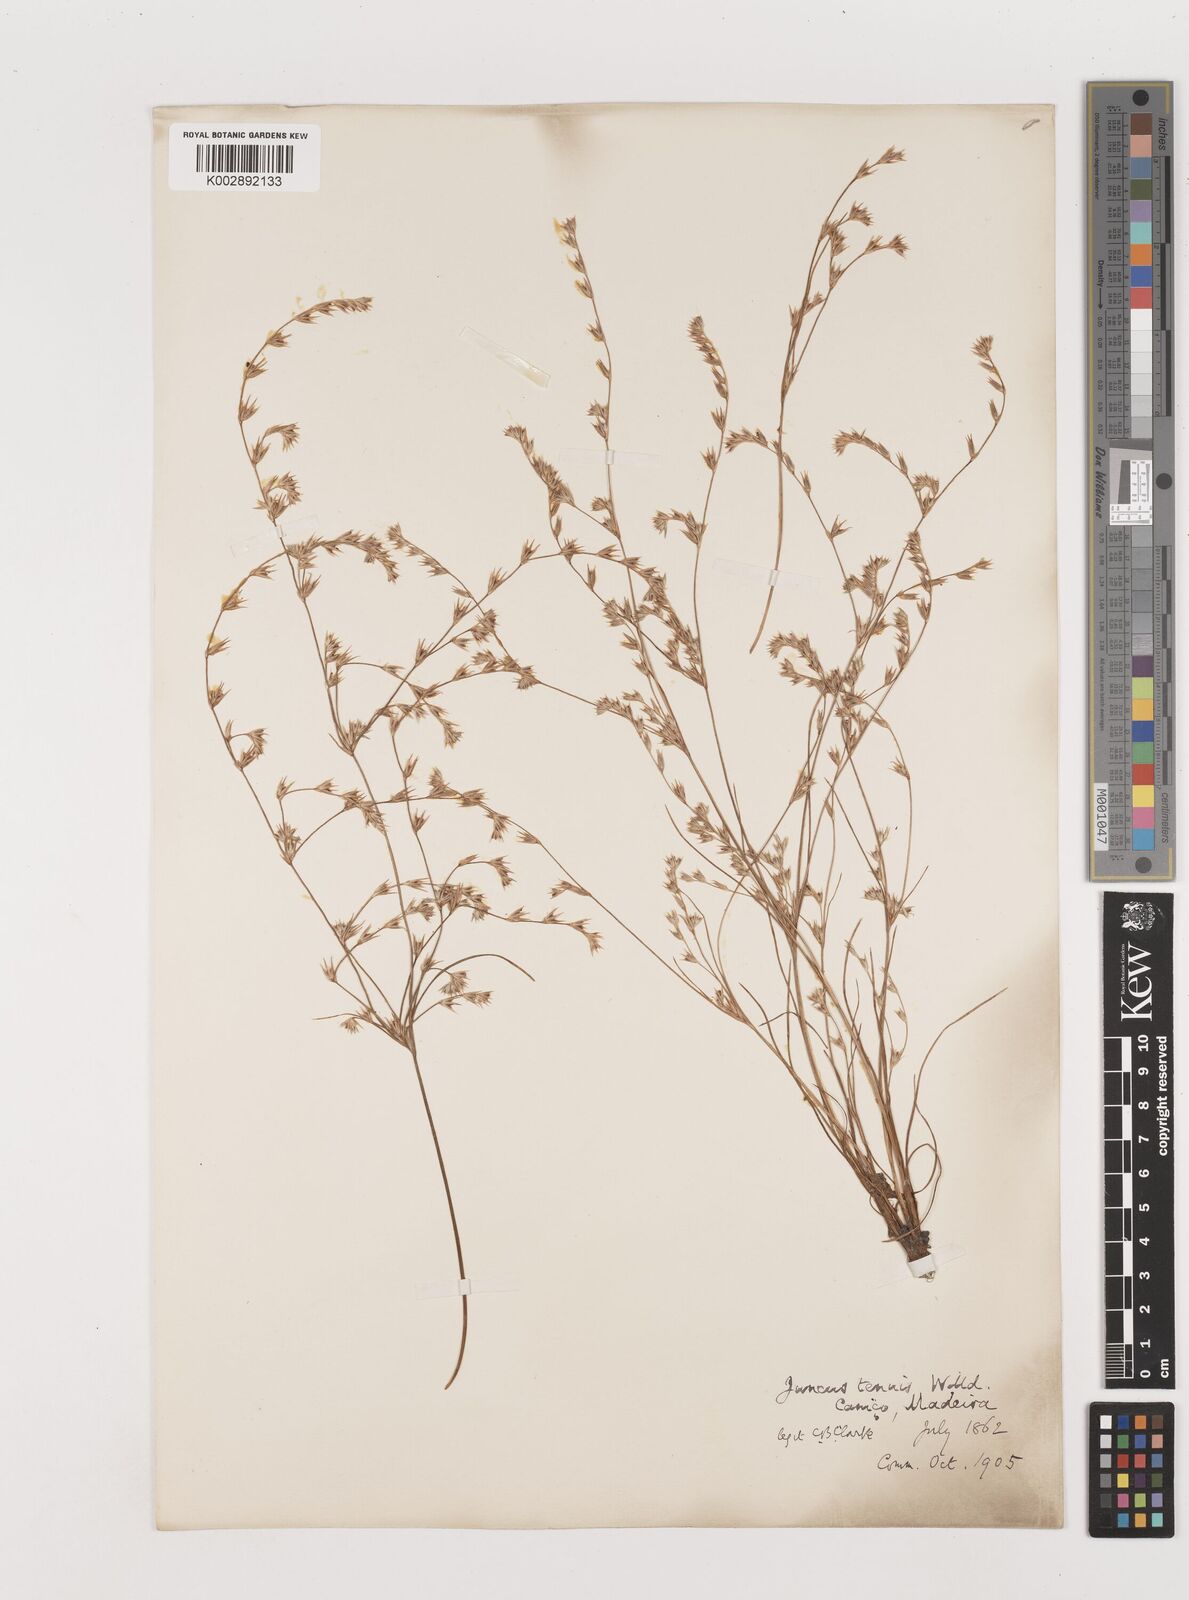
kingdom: Plantae
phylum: Tracheophyta
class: Liliopsida
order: Poales
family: Juncaceae
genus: Juncus
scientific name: Juncus tenuis
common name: Slender rush
